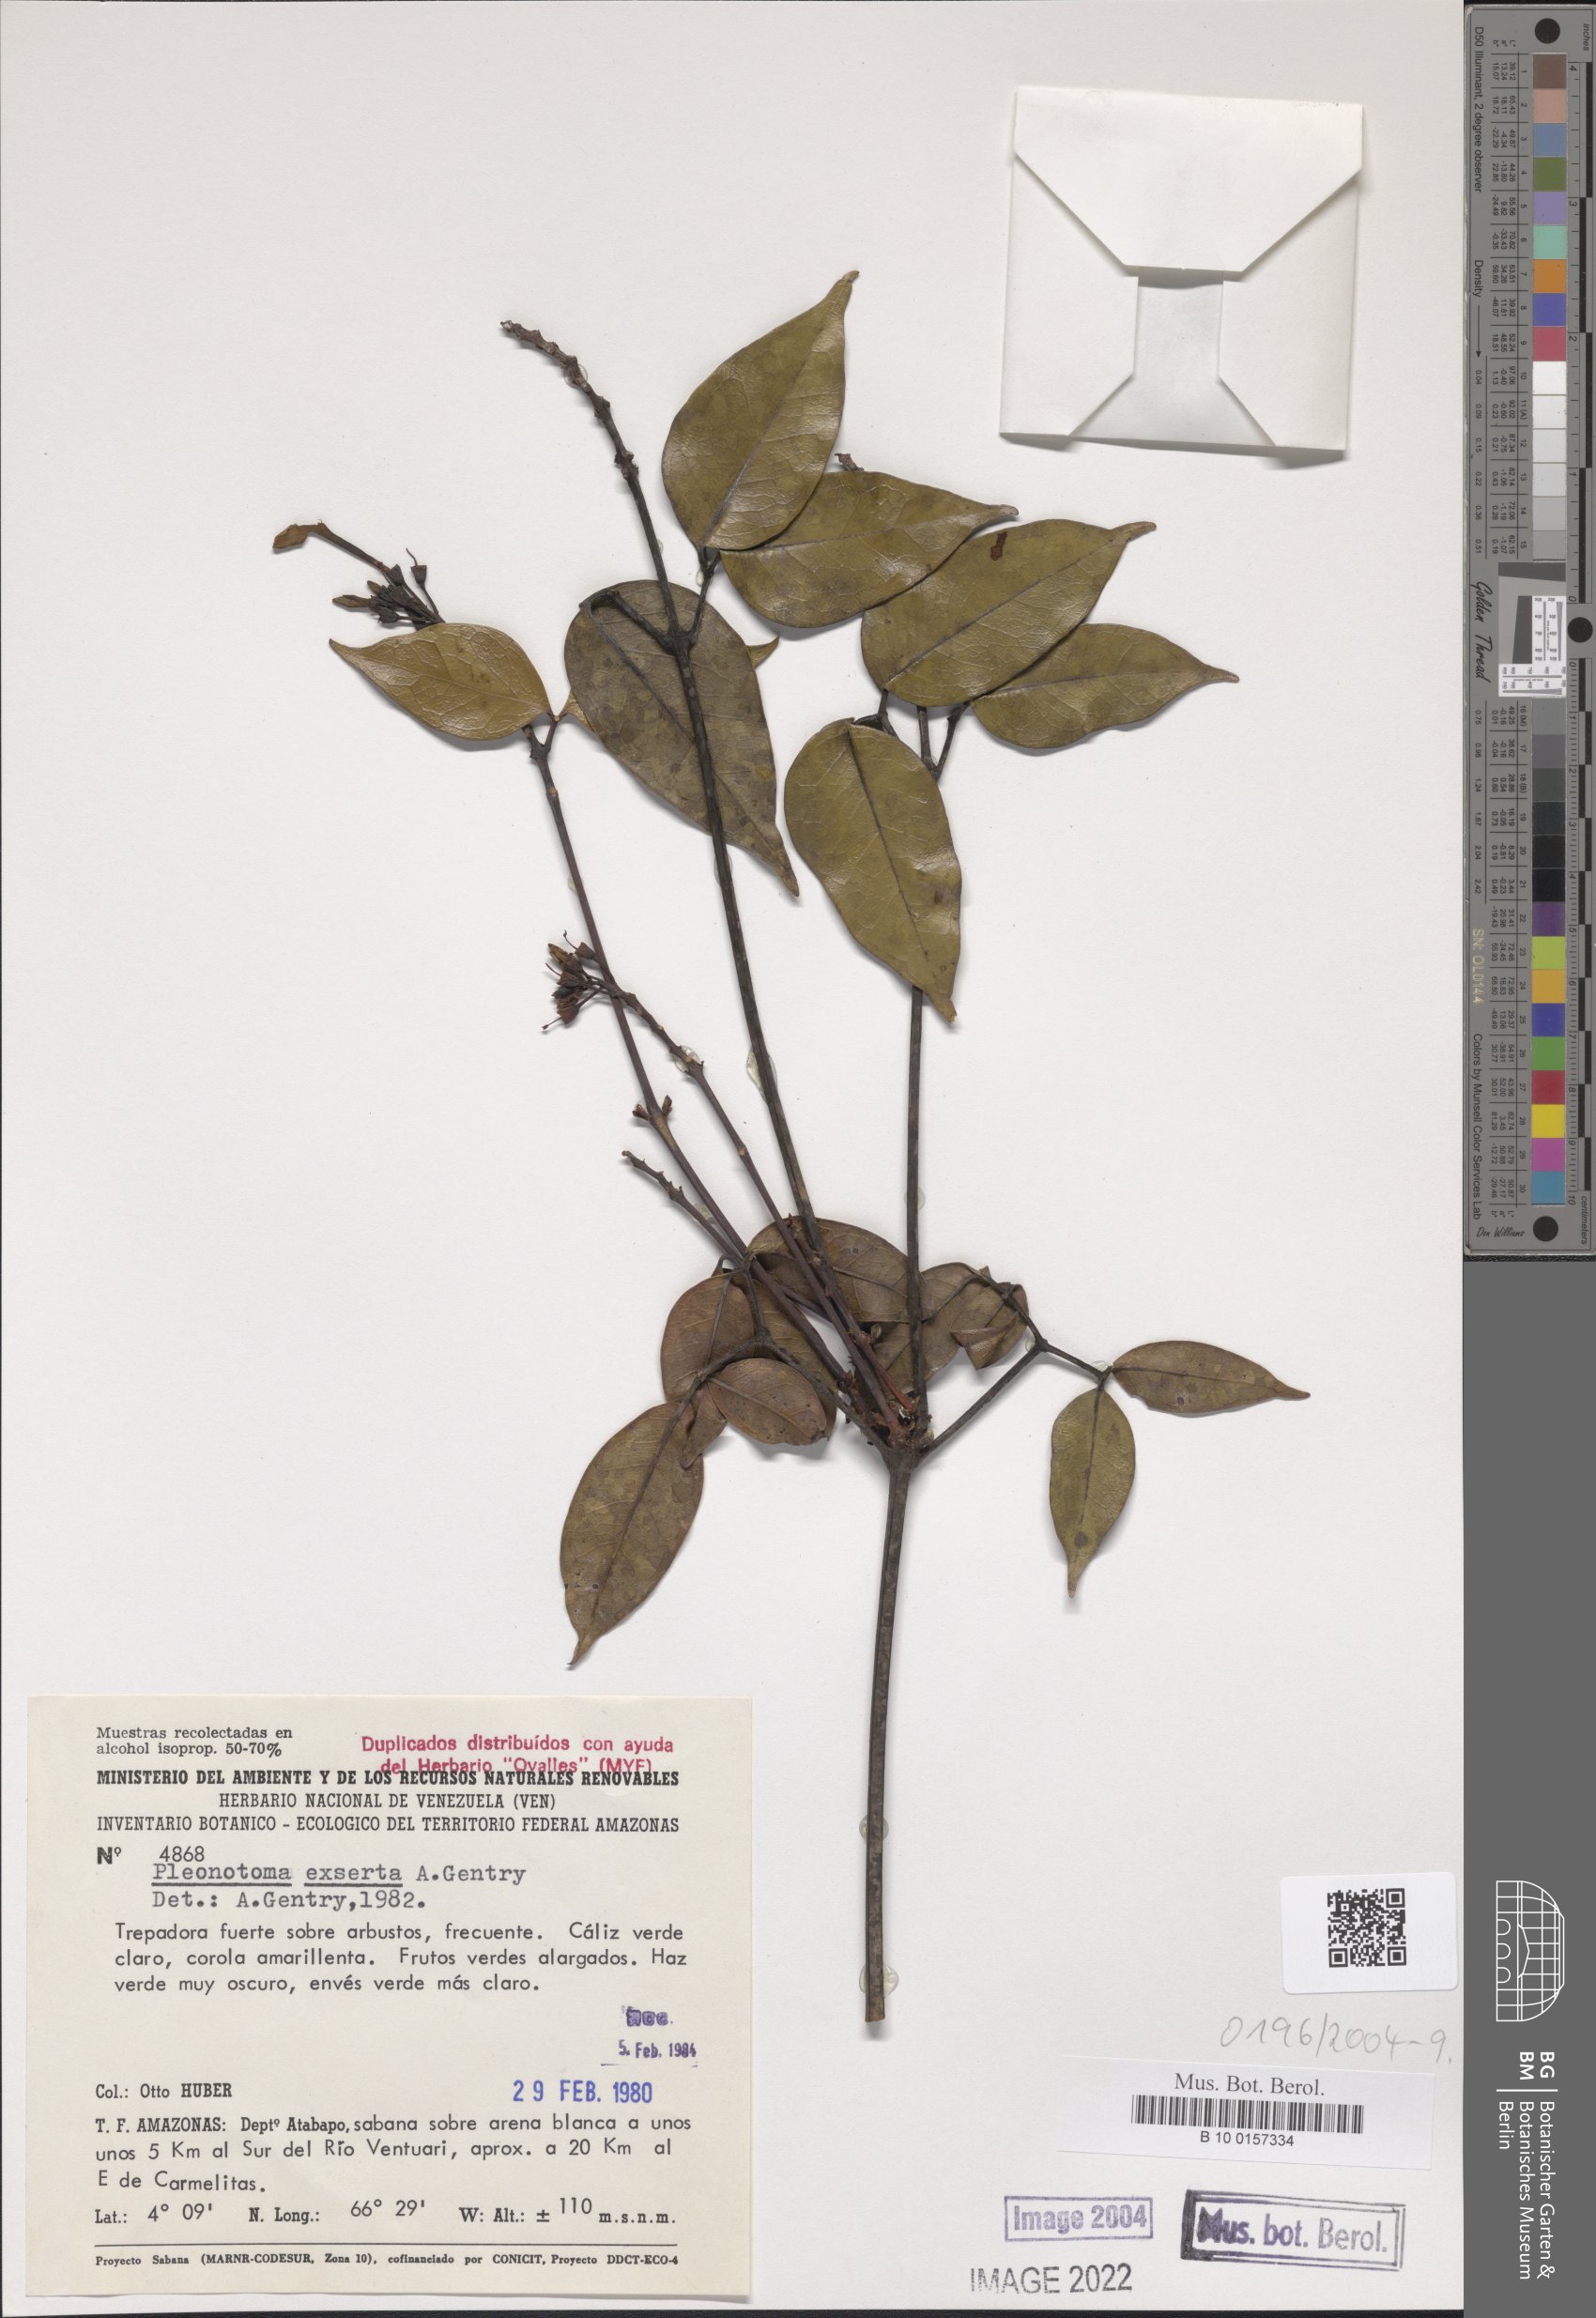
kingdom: Plantae
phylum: Tracheophyta
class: Magnoliopsida
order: Lamiales
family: Bignoniaceae
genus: Pleonotoma
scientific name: Pleonotoma exserta
